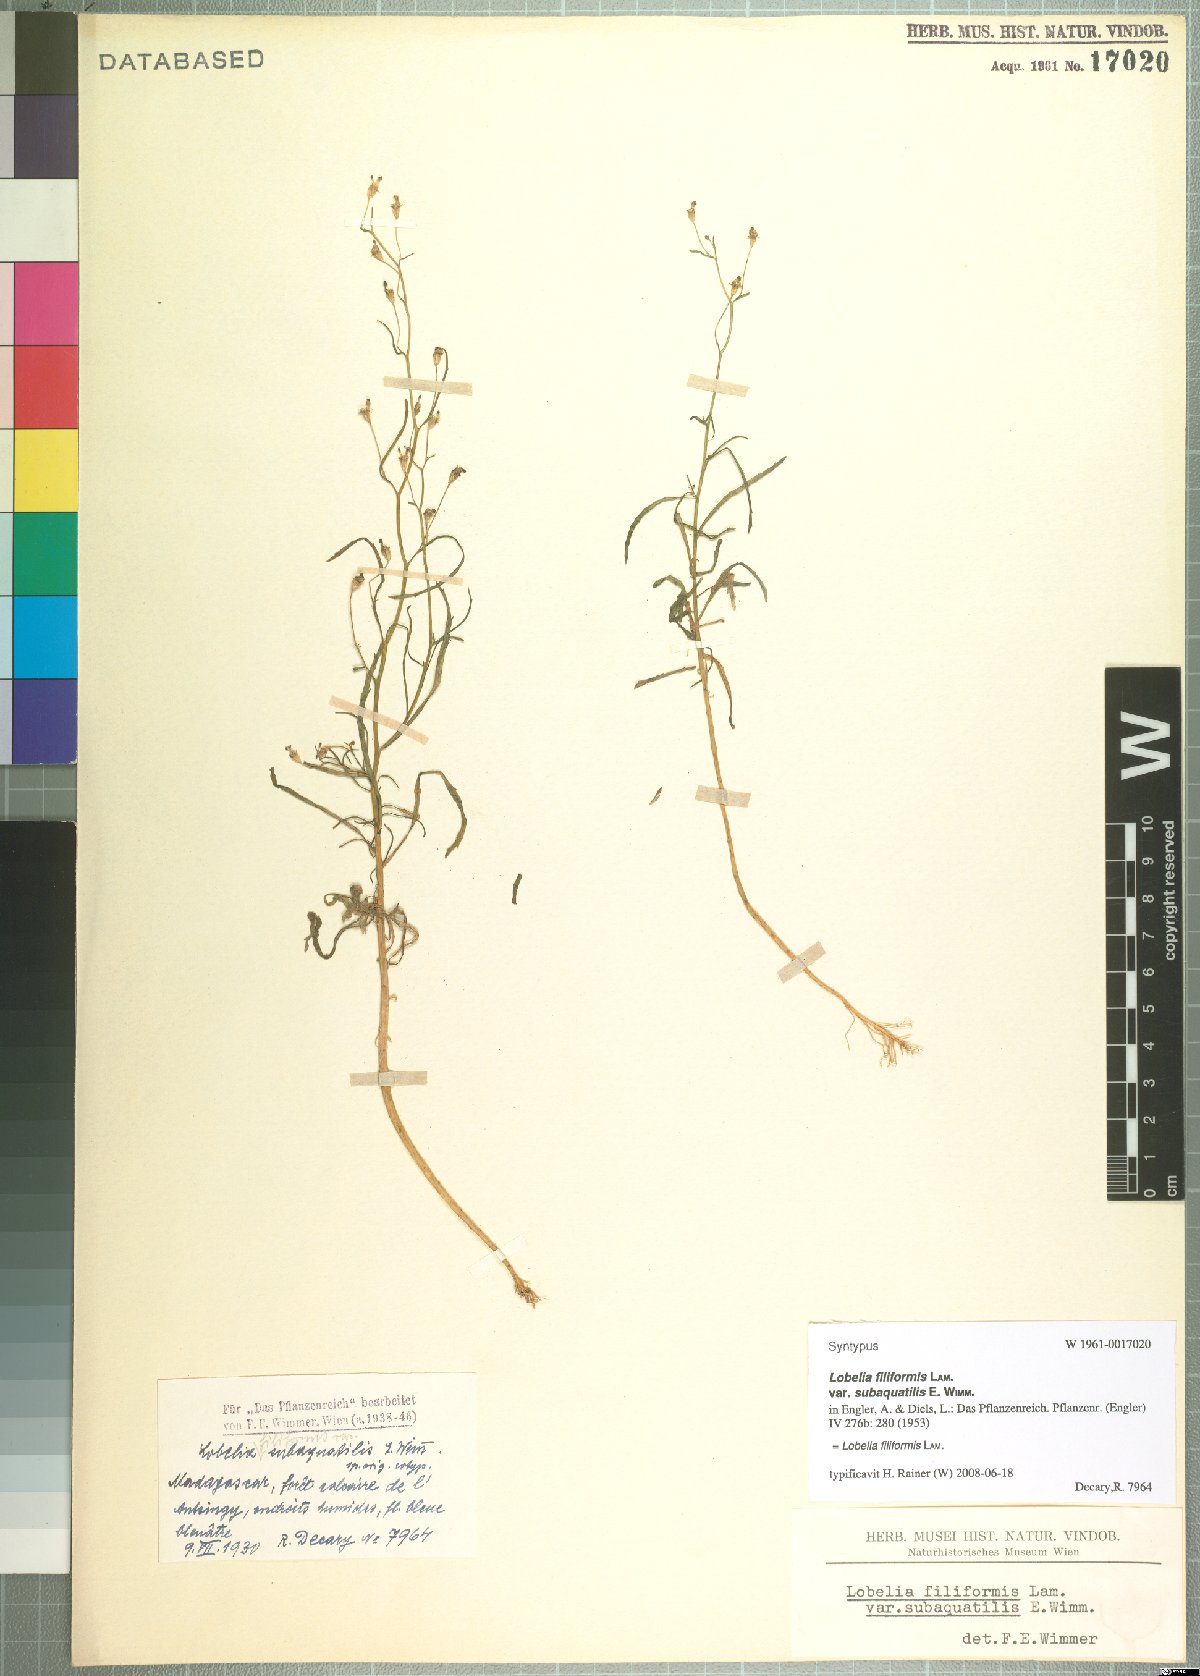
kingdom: Plantae
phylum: Tracheophyta
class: Magnoliopsida
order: Asterales
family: Campanulaceae
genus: Lobelia
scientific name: Lobelia filiformis
